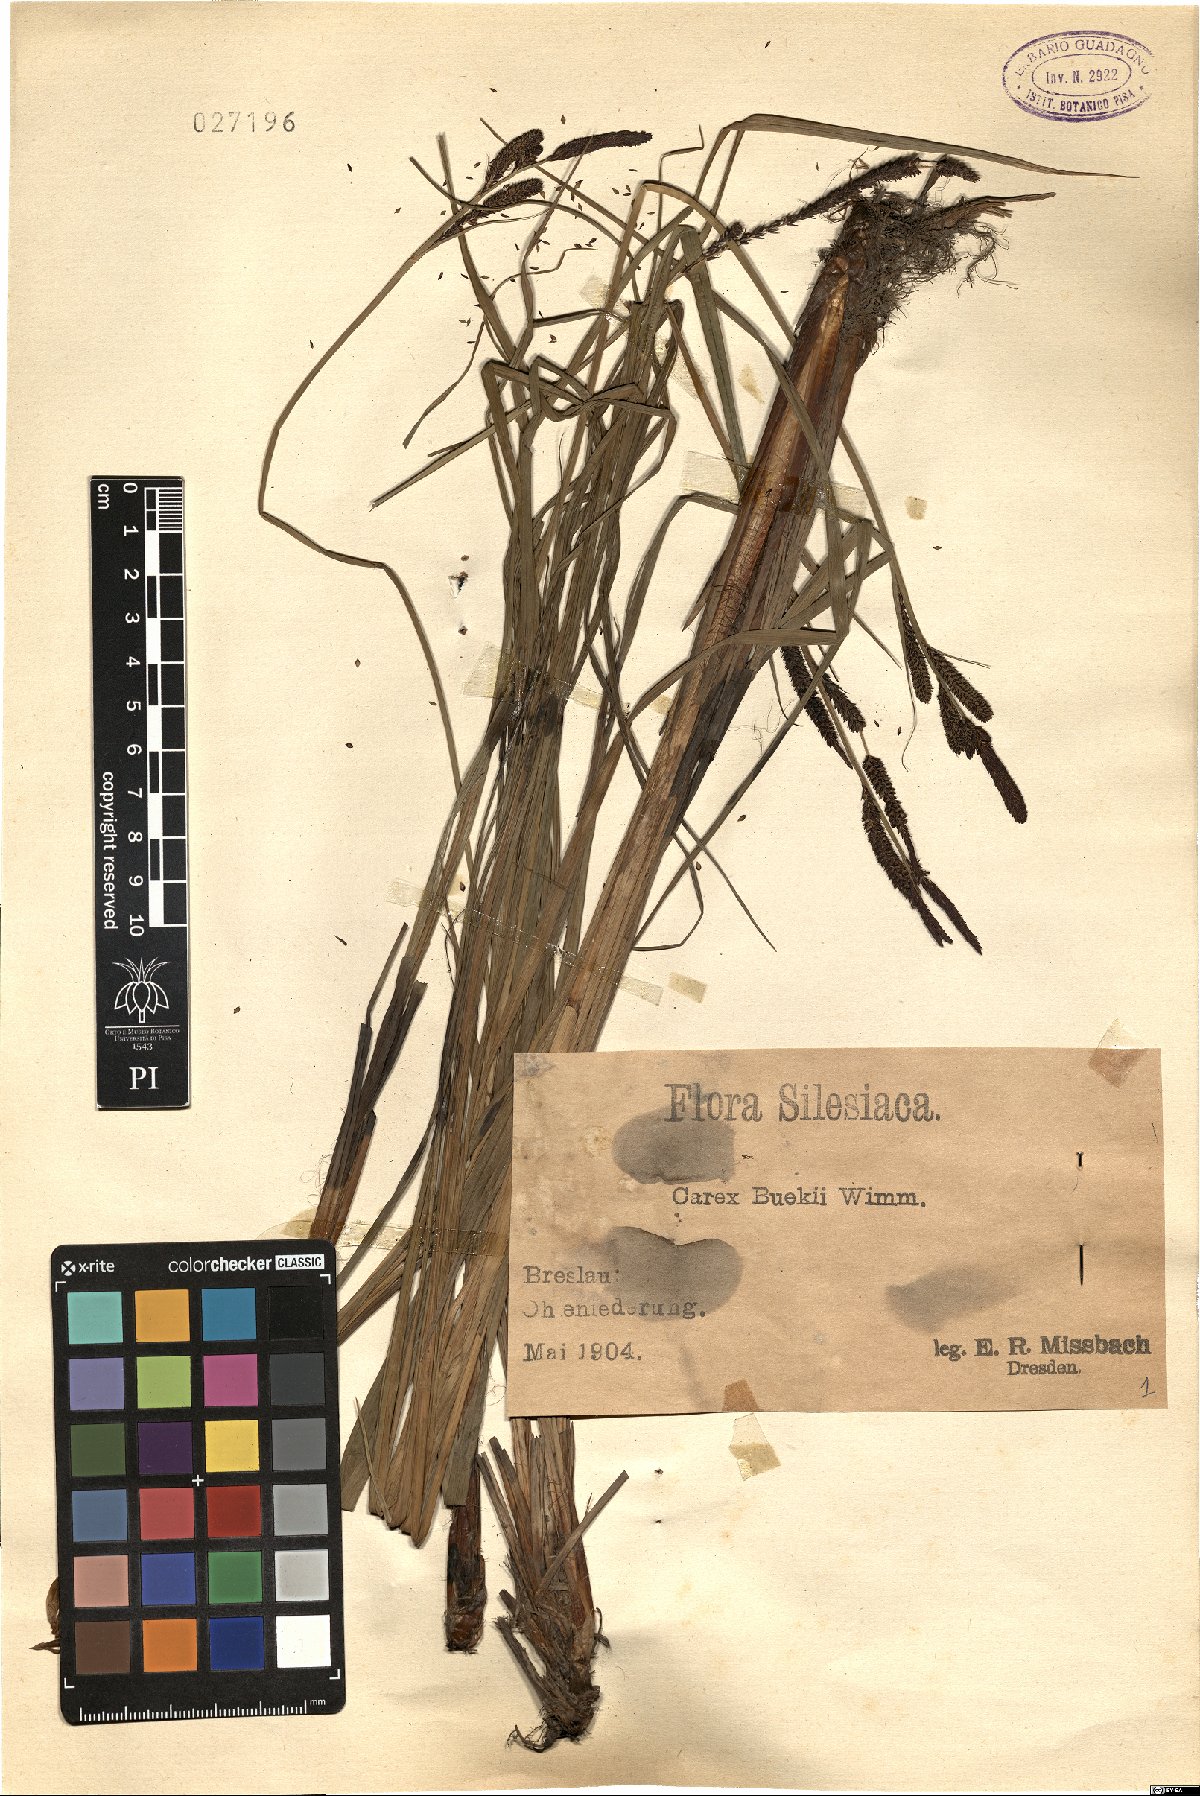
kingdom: Plantae
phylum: Tracheophyta
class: Liliopsida
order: Poales
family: Cyperaceae
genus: Carex
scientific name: Carex buekii
